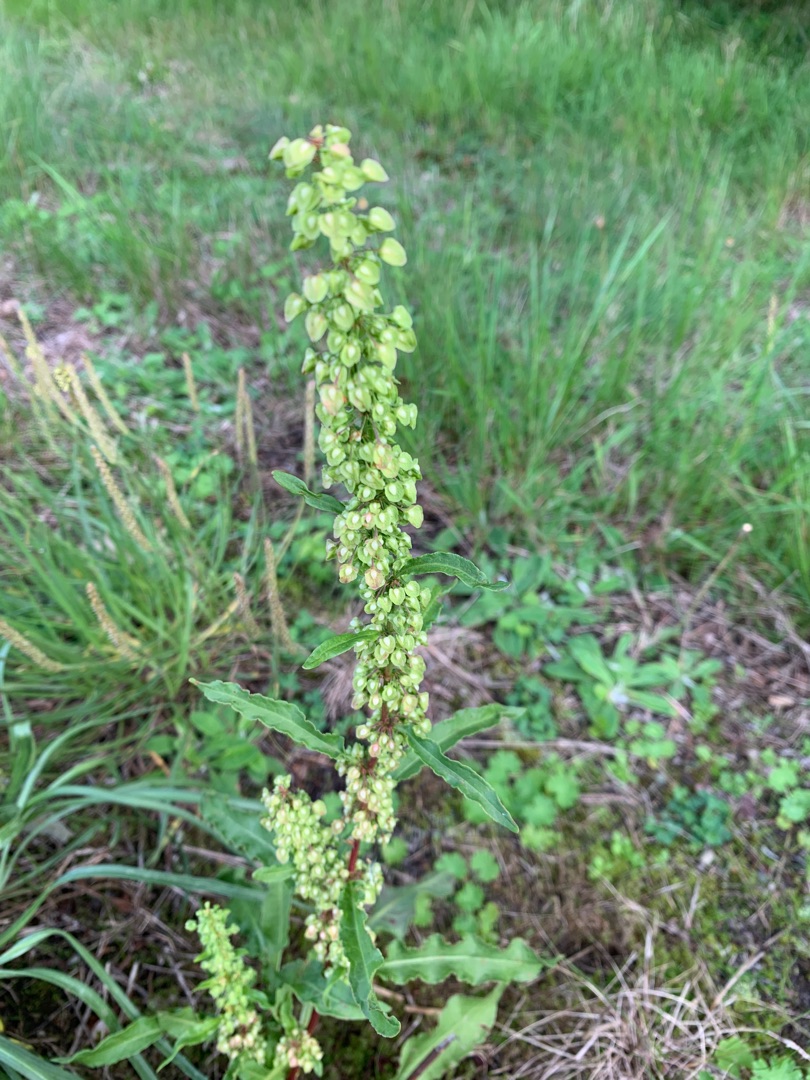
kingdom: Plantae
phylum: Tracheophyta
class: Magnoliopsida
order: Caryophyllales
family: Polygonaceae
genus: Rumex
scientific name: Rumex crispus
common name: Kruset skræppe
